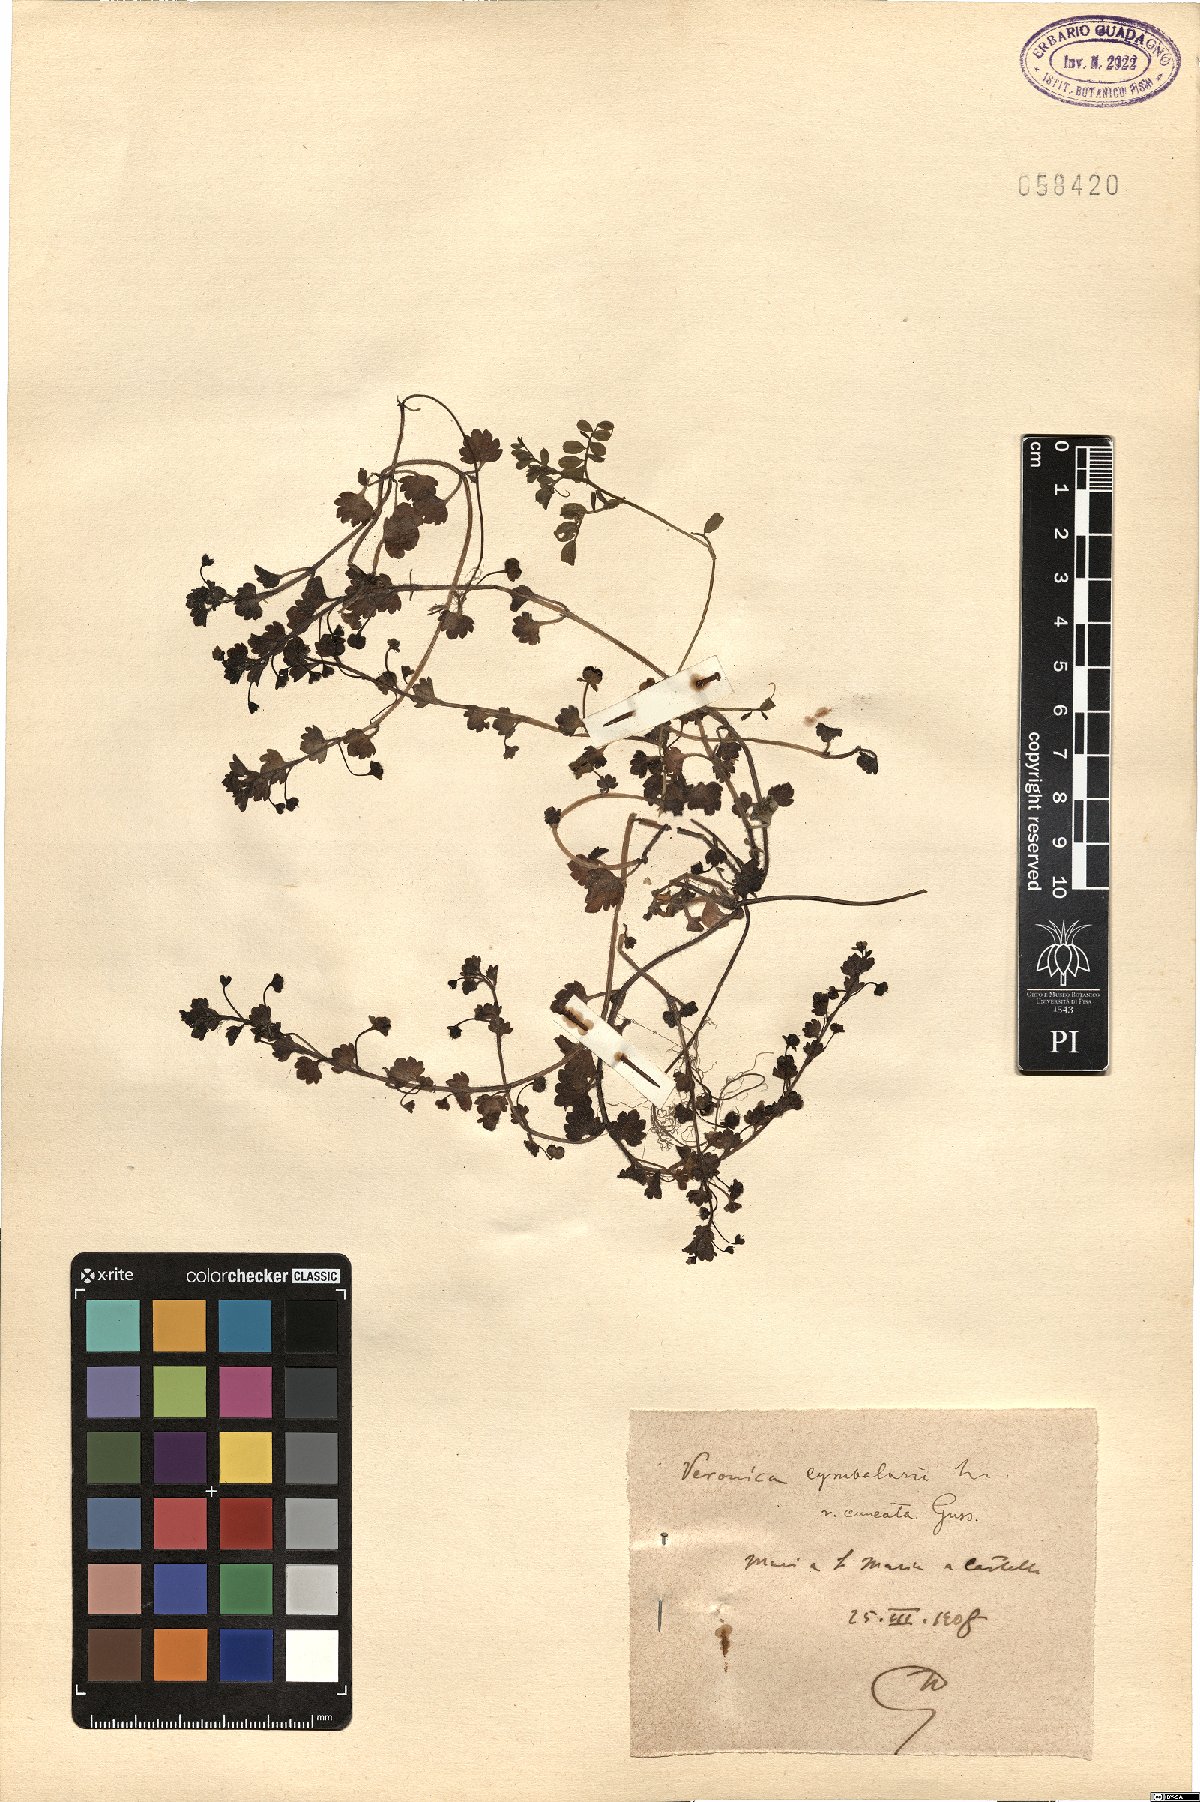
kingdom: Plantae
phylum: Tracheophyta
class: Magnoliopsida
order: Lamiales
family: Plantaginaceae
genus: Veronica
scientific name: Veronica cymbalaria
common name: Pale speedwell
